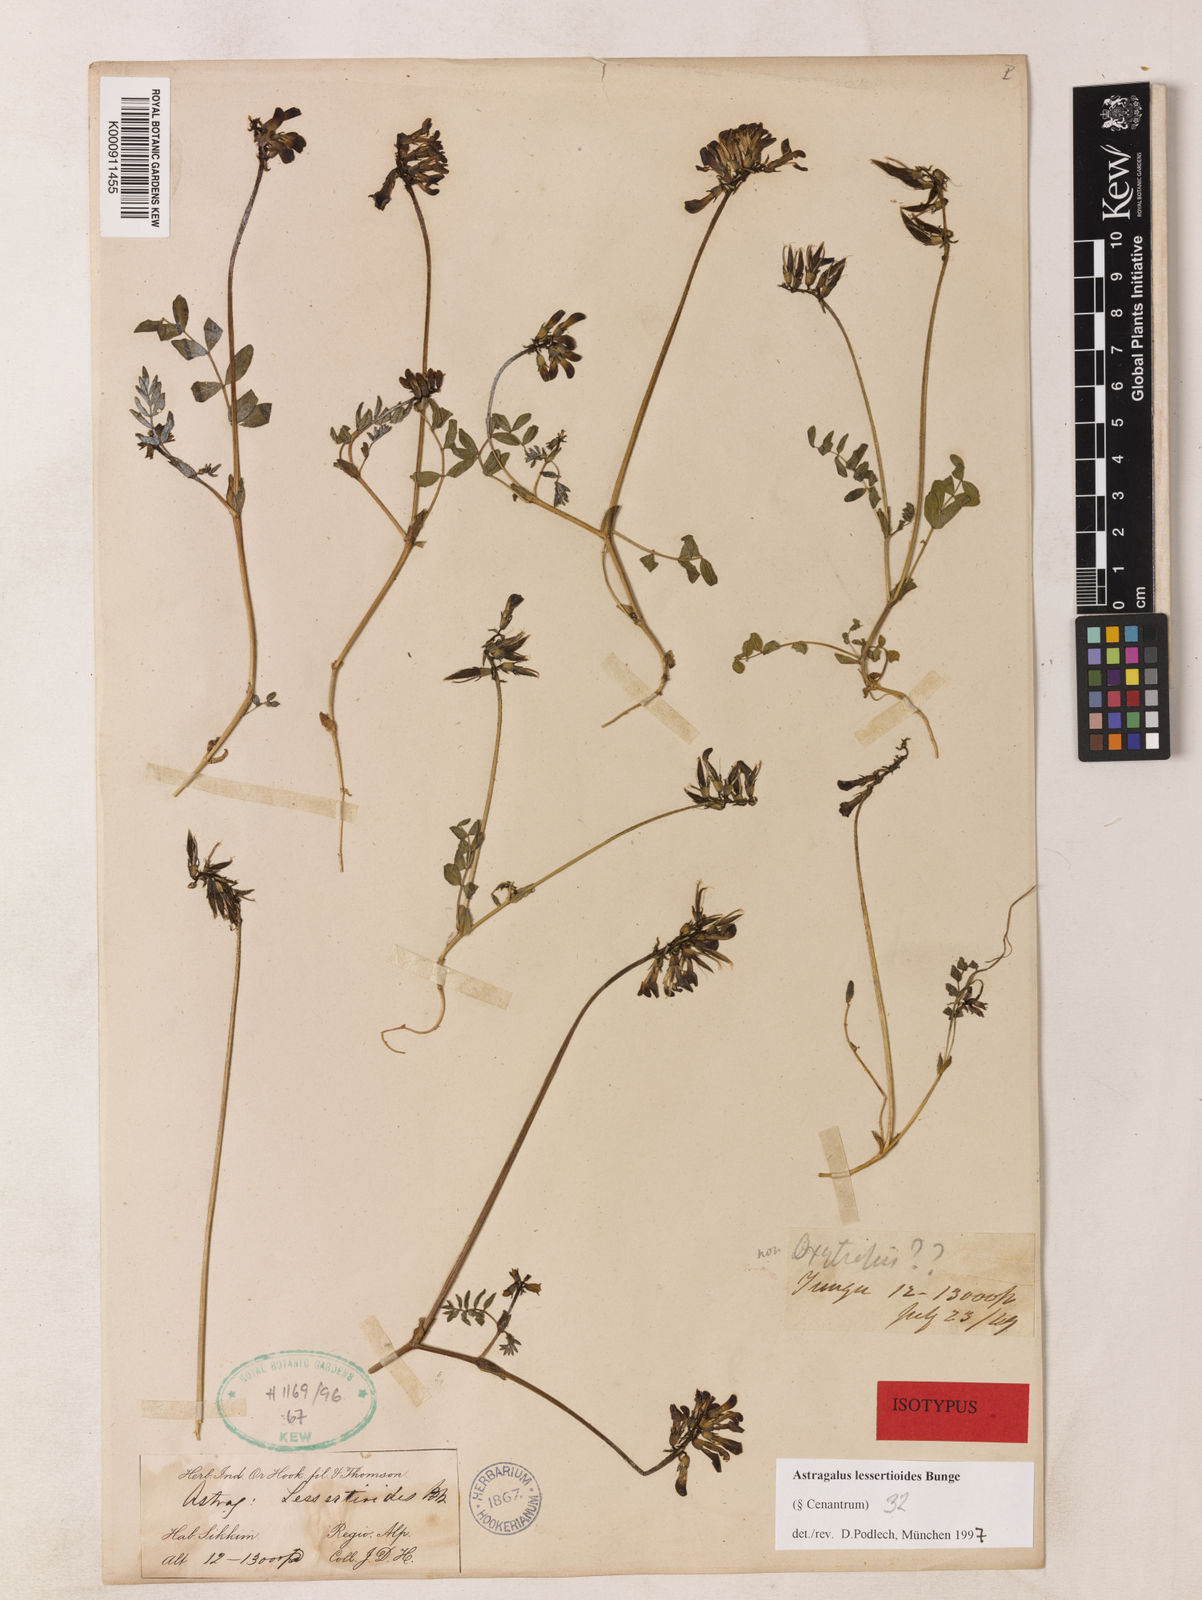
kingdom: Plantae
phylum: Tracheophyta
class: Magnoliopsida
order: Fabales
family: Fabaceae
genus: Astragalus
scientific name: Astragalus lessertioides
